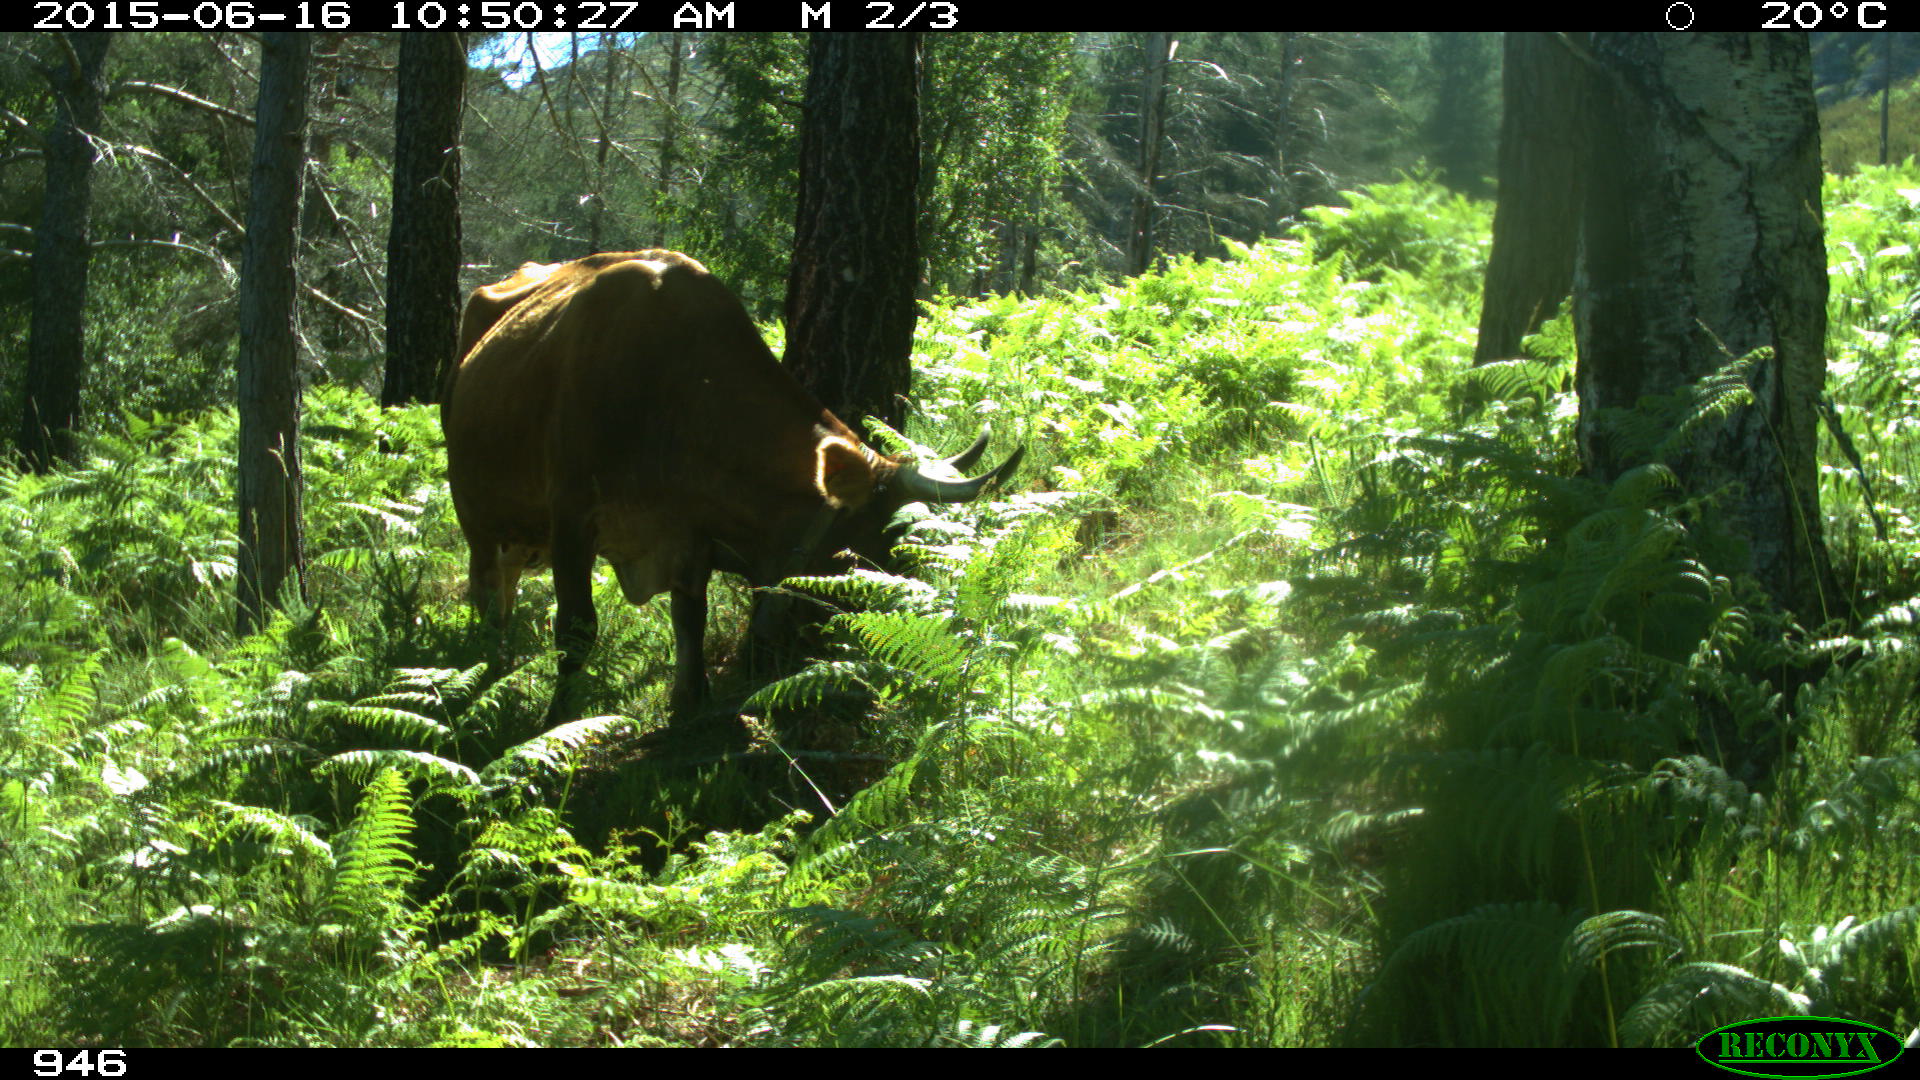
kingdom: Animalia
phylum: Chordata
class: Mammalia
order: Artiodactyla
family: Bovidae
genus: Bos
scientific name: Bos taurus
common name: Domesticated cattle
